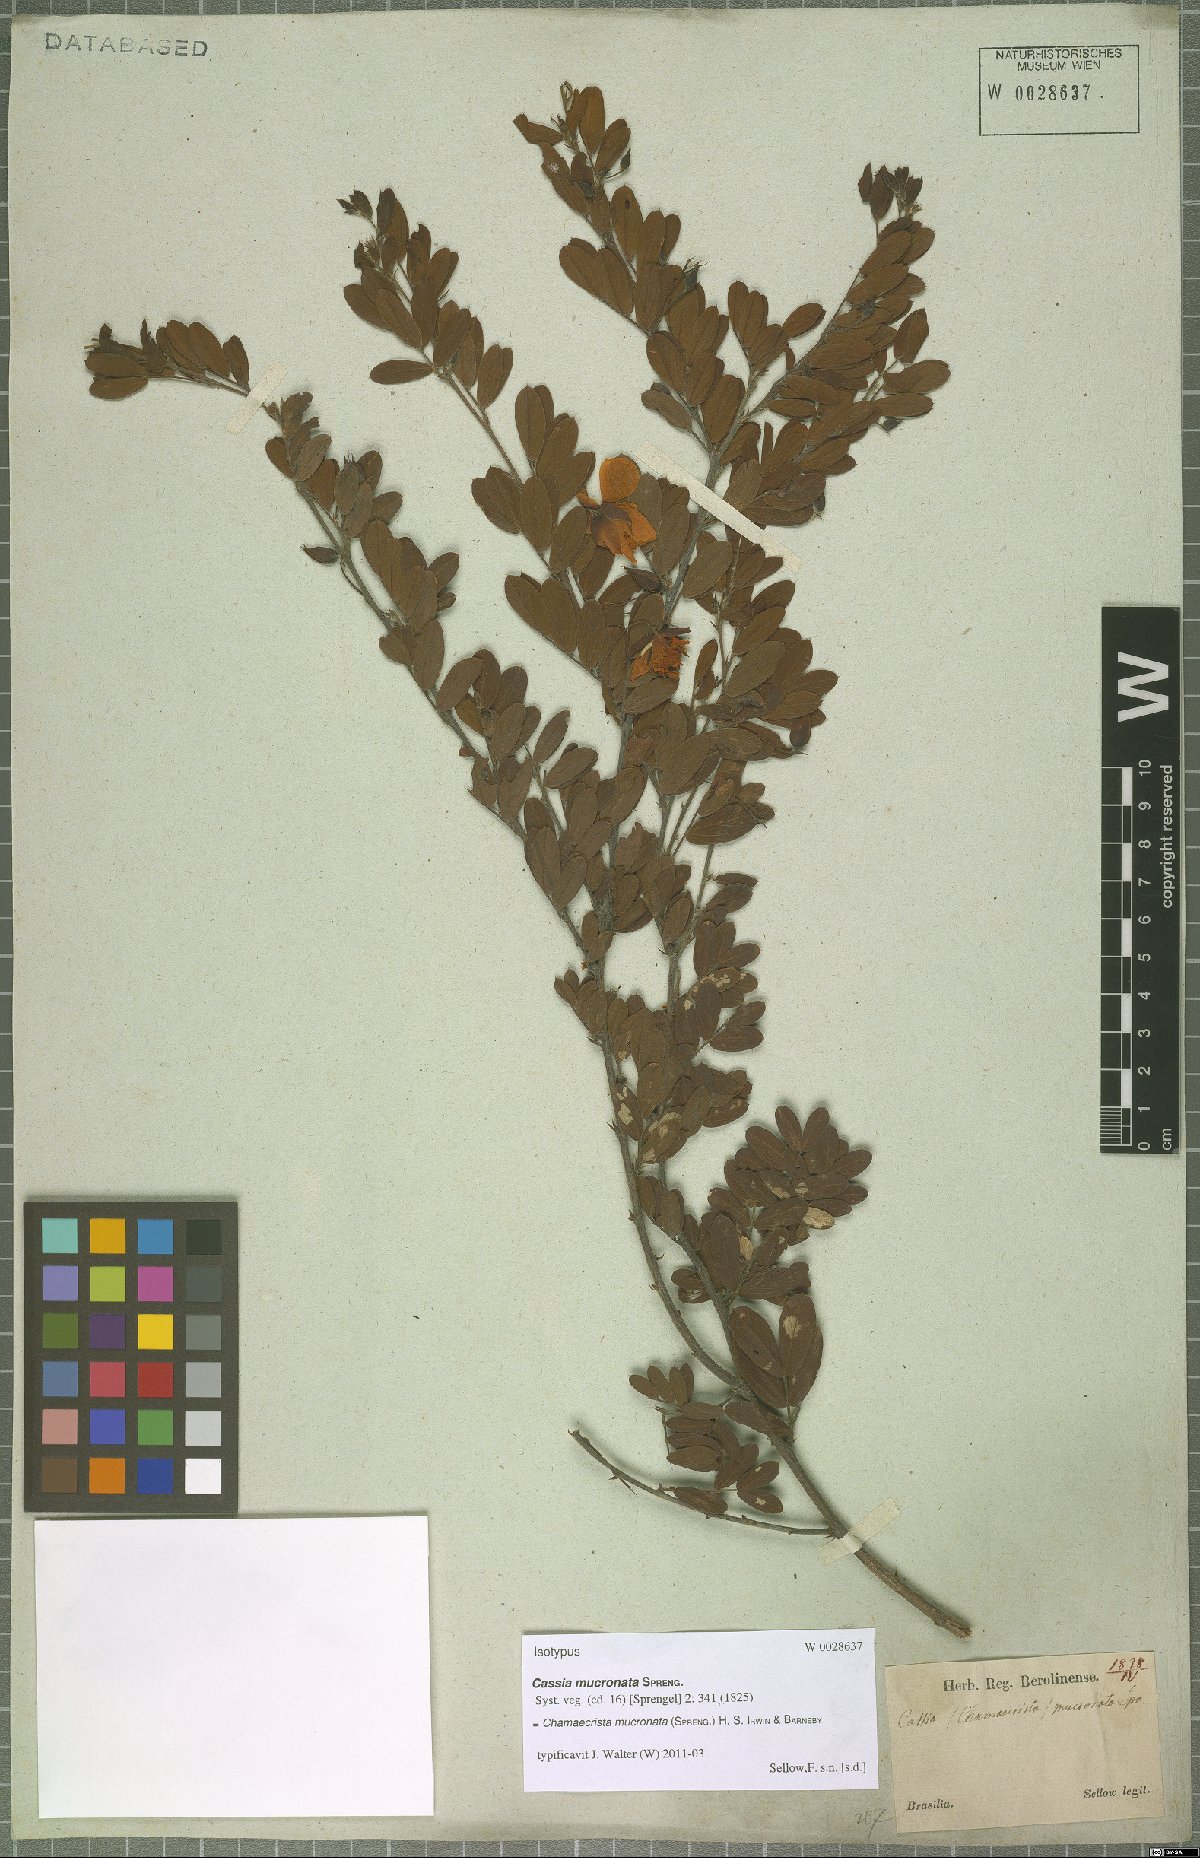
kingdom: Plantae
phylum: Tracheophyta
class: Magnoliopsida
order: Fabales
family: Fabaceae
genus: Chamaecrista
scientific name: Chamaecrista mucronata
